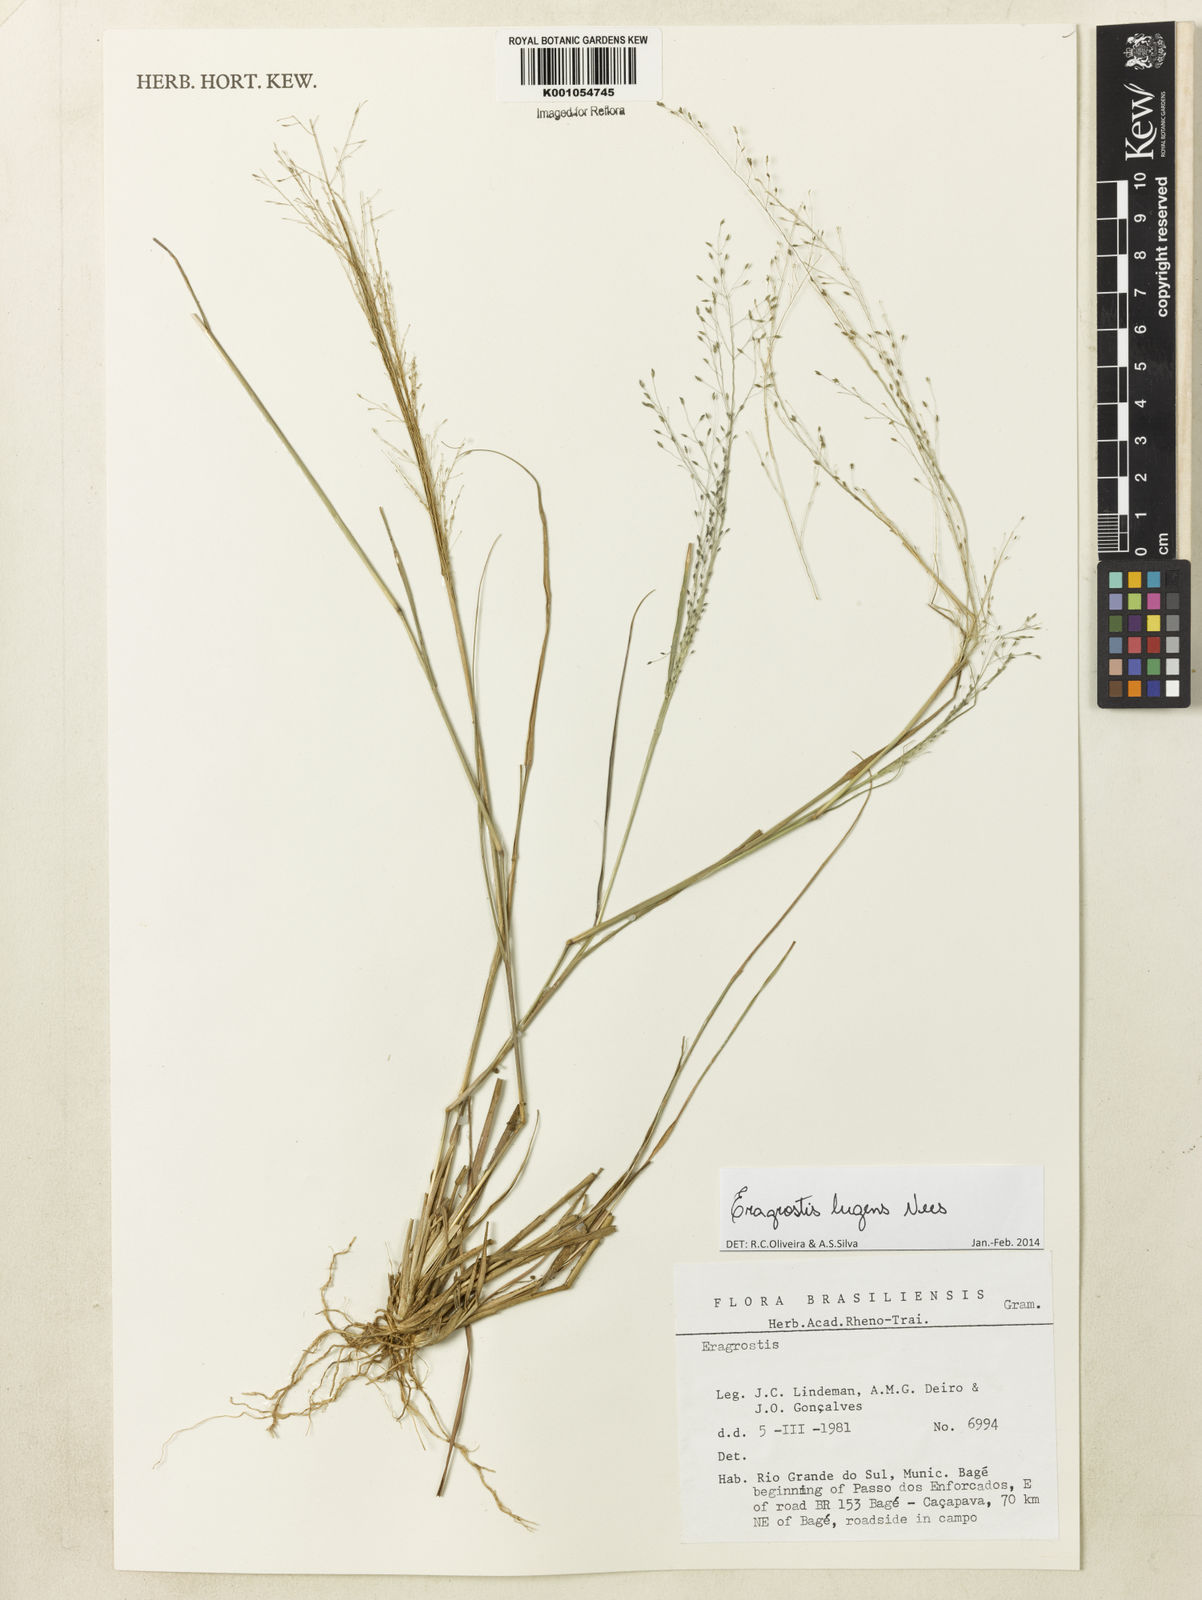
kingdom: Plantae
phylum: Tracheophyta
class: Liliopsida
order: Poales
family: Poaceae
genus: Eragrostis
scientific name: Eragrostis lugens
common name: Mourning love grass
